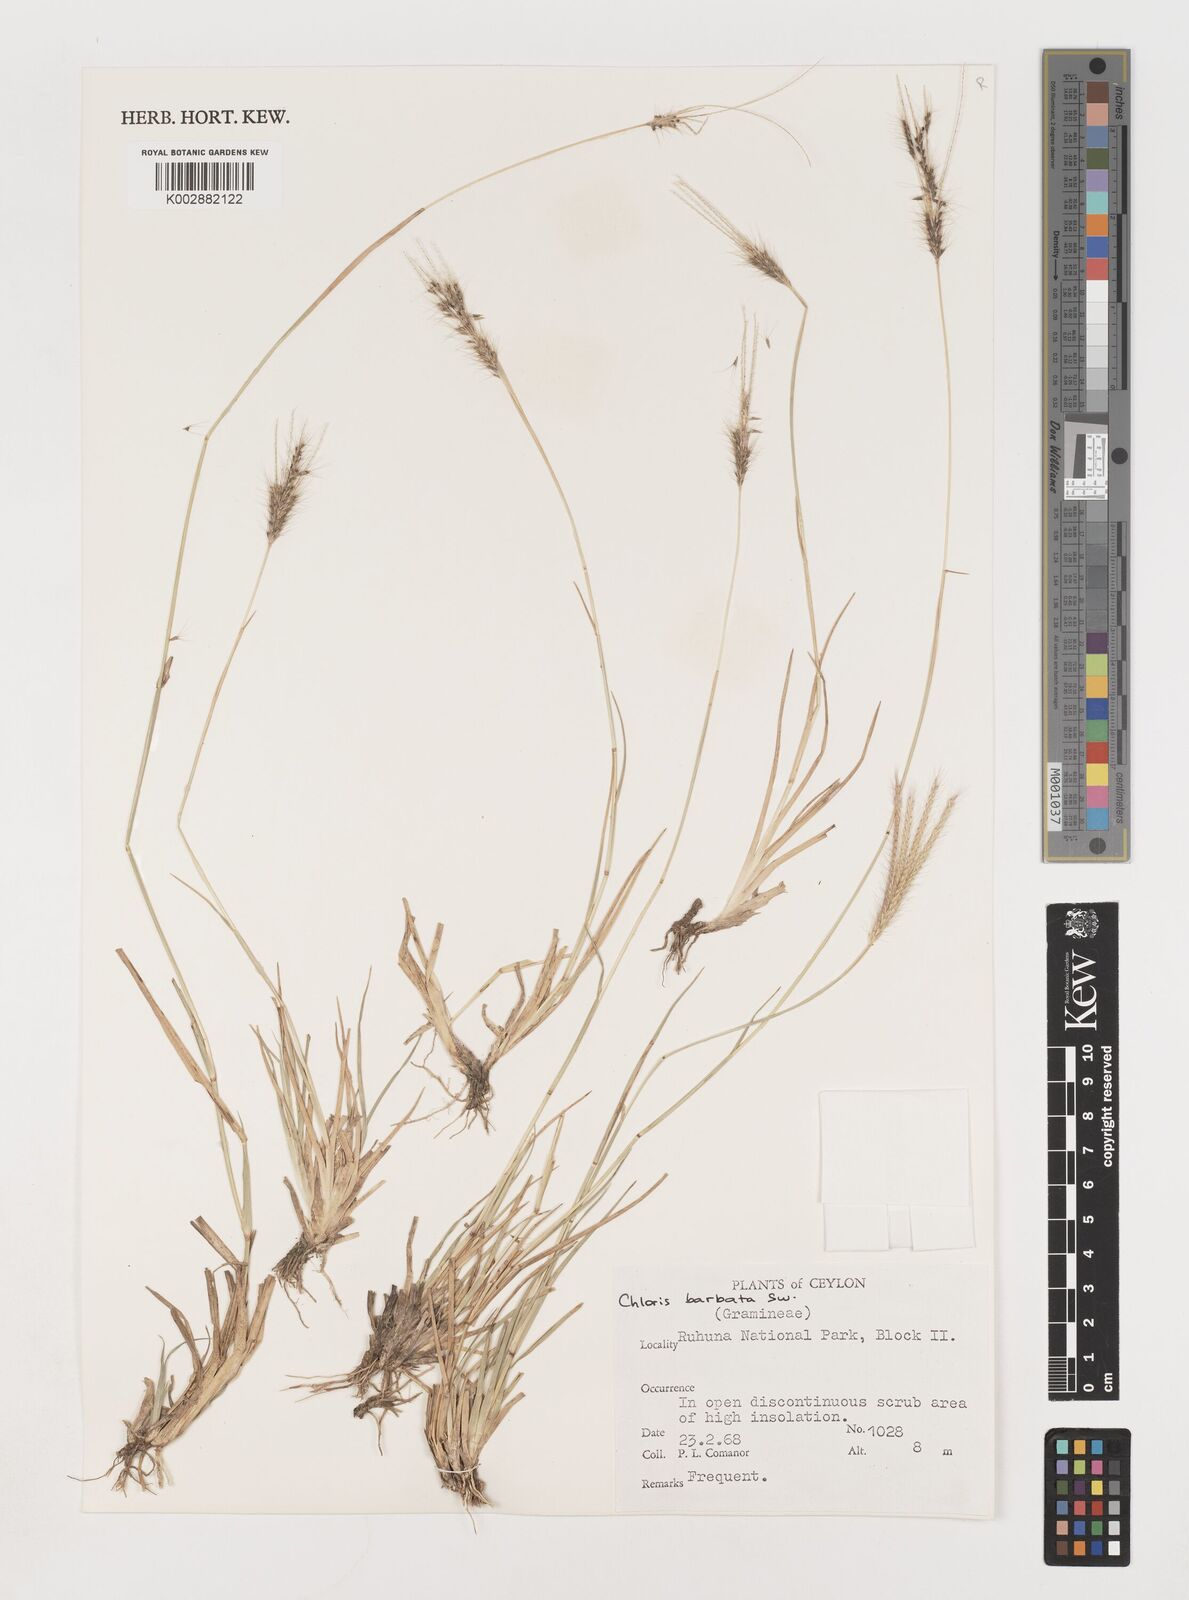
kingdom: Plantae
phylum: Tracheophyta
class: Liliopsida
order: Poales
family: Poaceae
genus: Chloris
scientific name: Chloris barbata
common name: Swollen fingergrass
